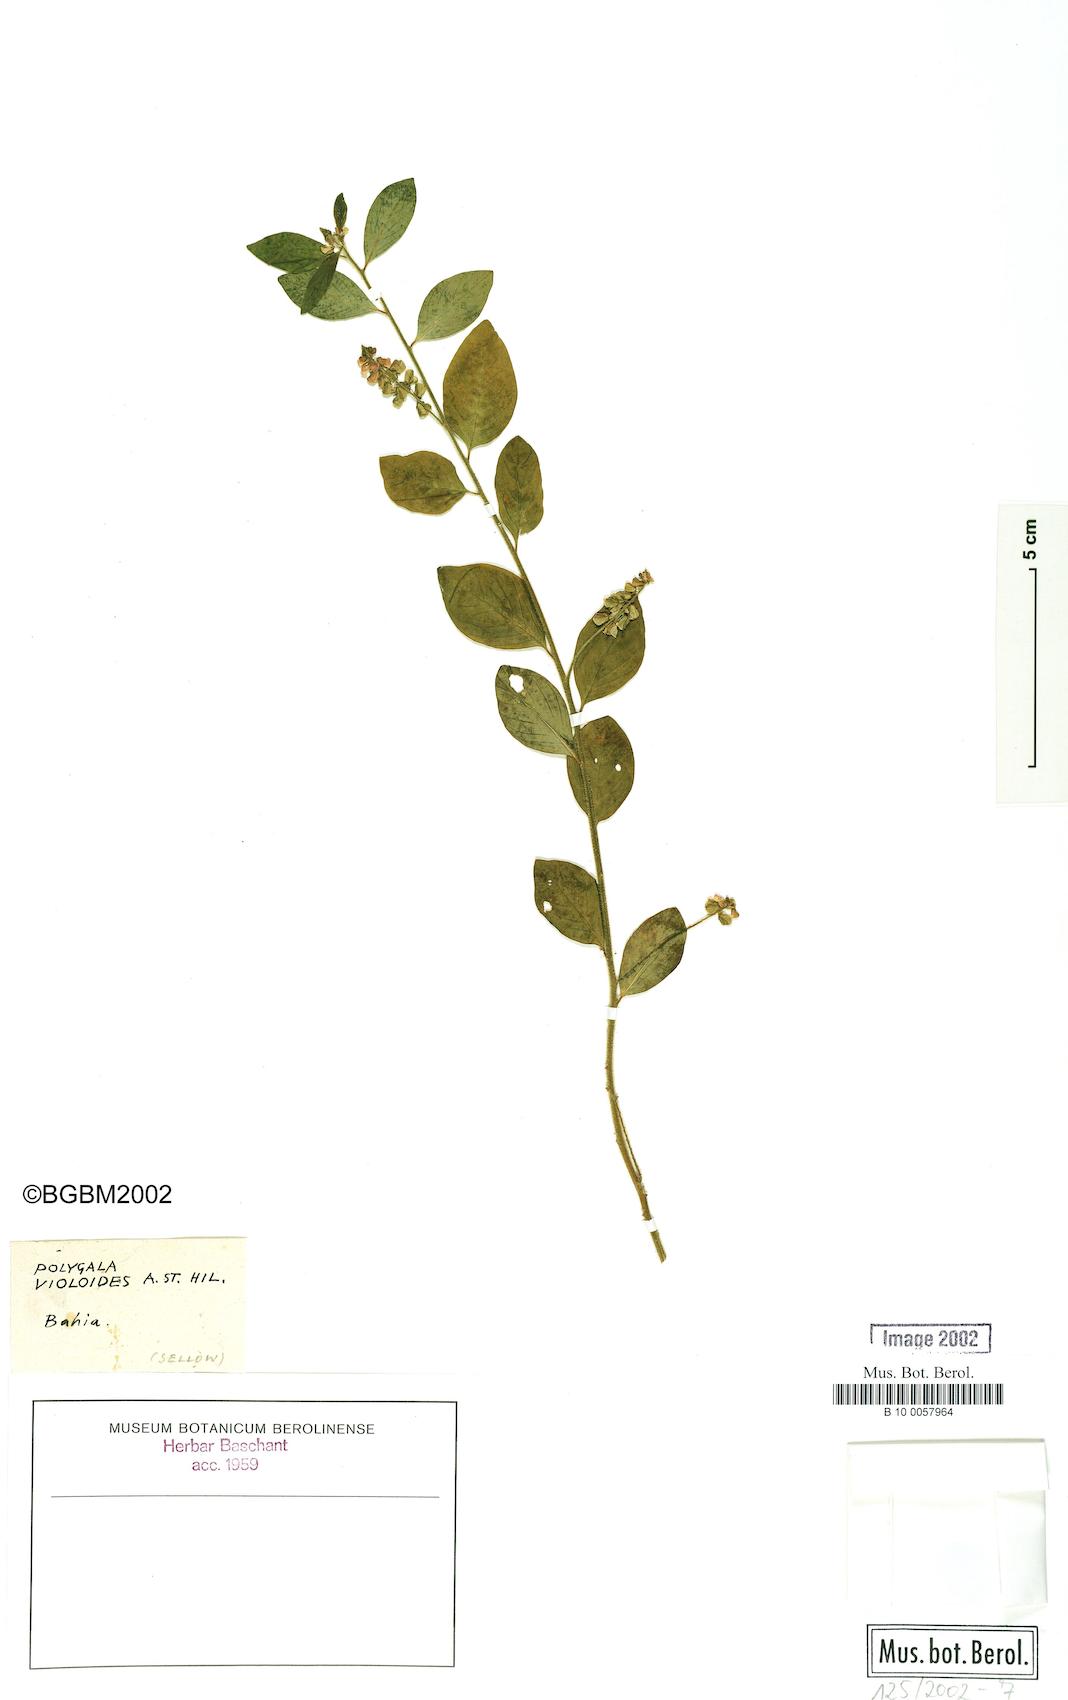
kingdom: Plantae
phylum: Tracheophyta
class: Magnoliopsida
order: Fabales
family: Polygalaceae
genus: Gymnospora
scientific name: Gymnospora violoides
